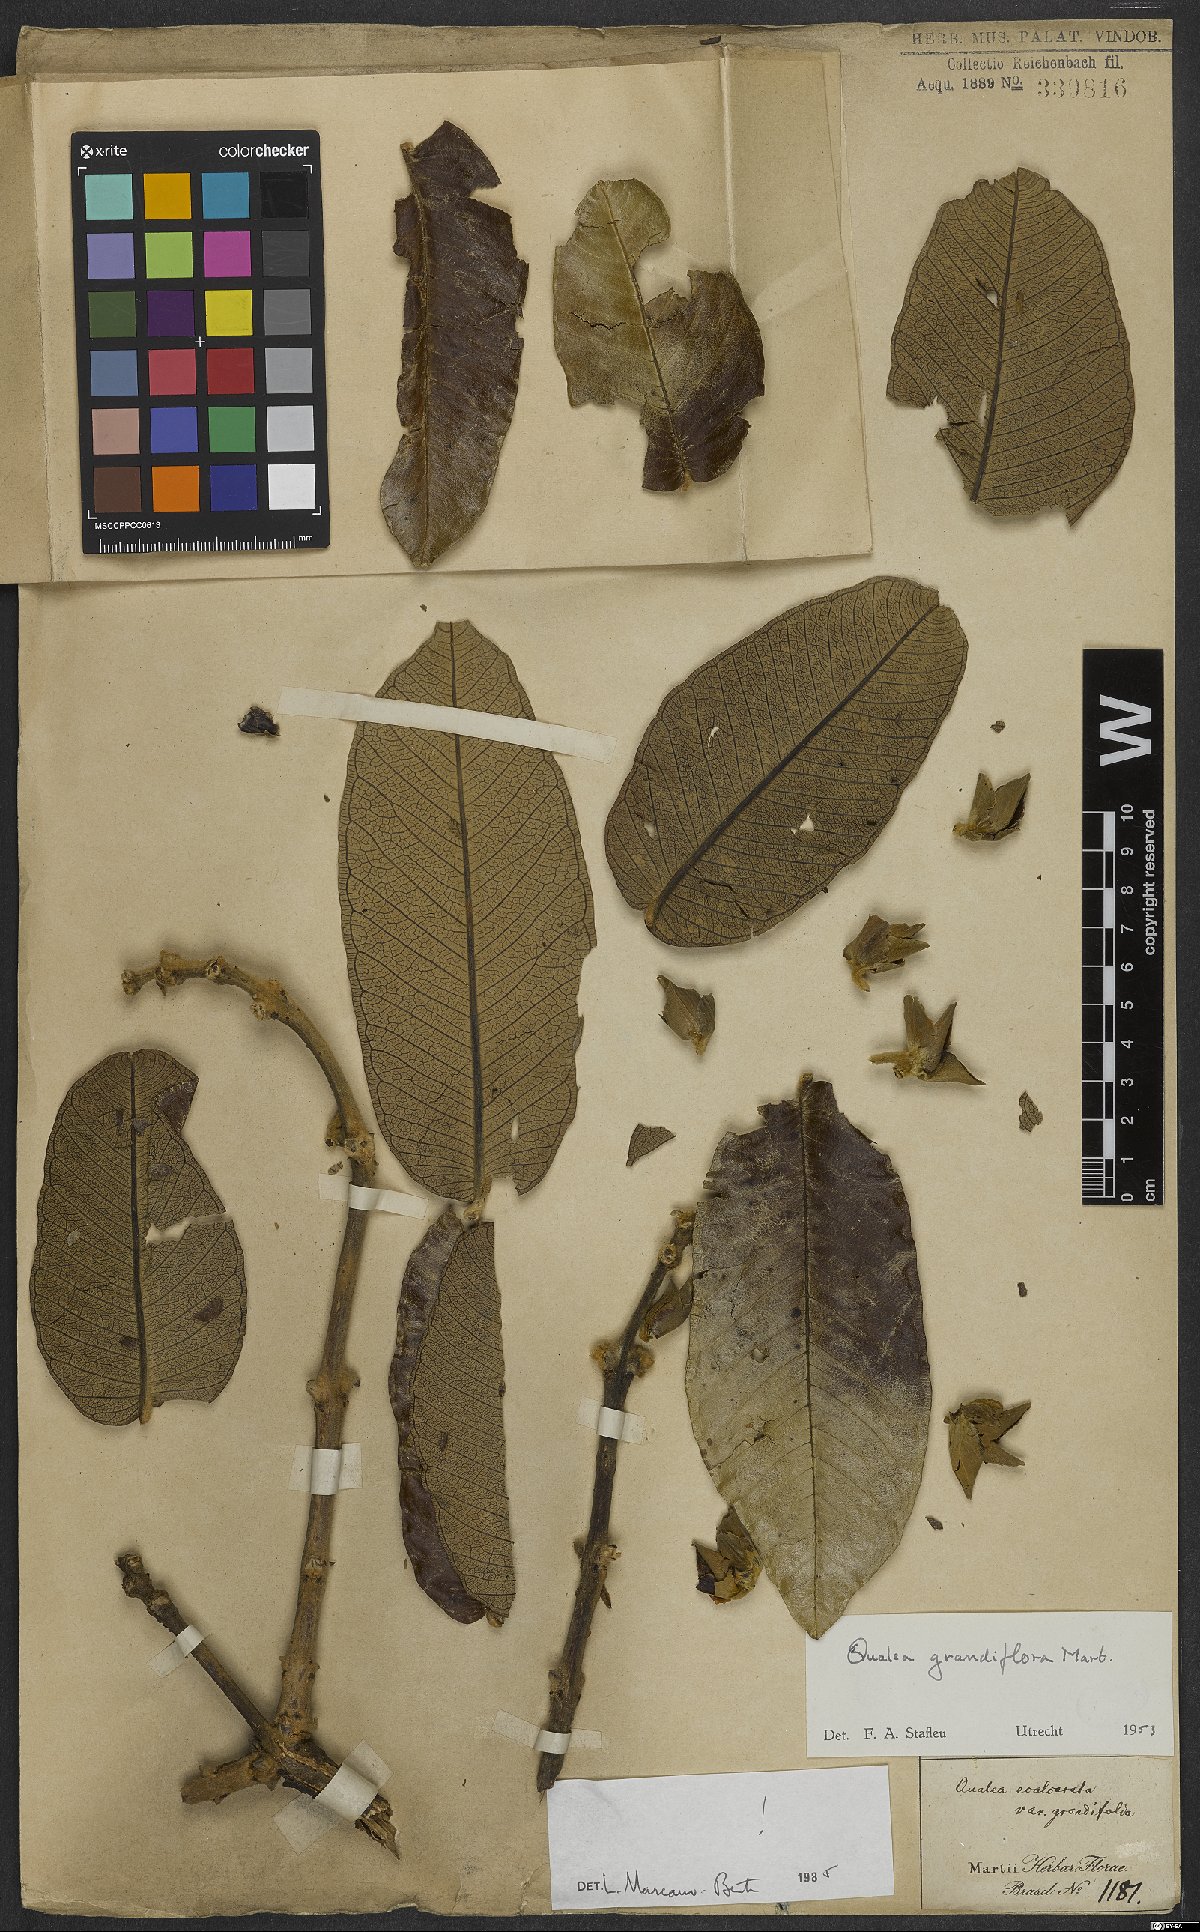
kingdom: Plantae
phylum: Tracheophyta
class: Magnoliopsida
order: Myrtales
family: Vochysiaceae
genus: Qualea
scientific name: Qualea grandiflora
